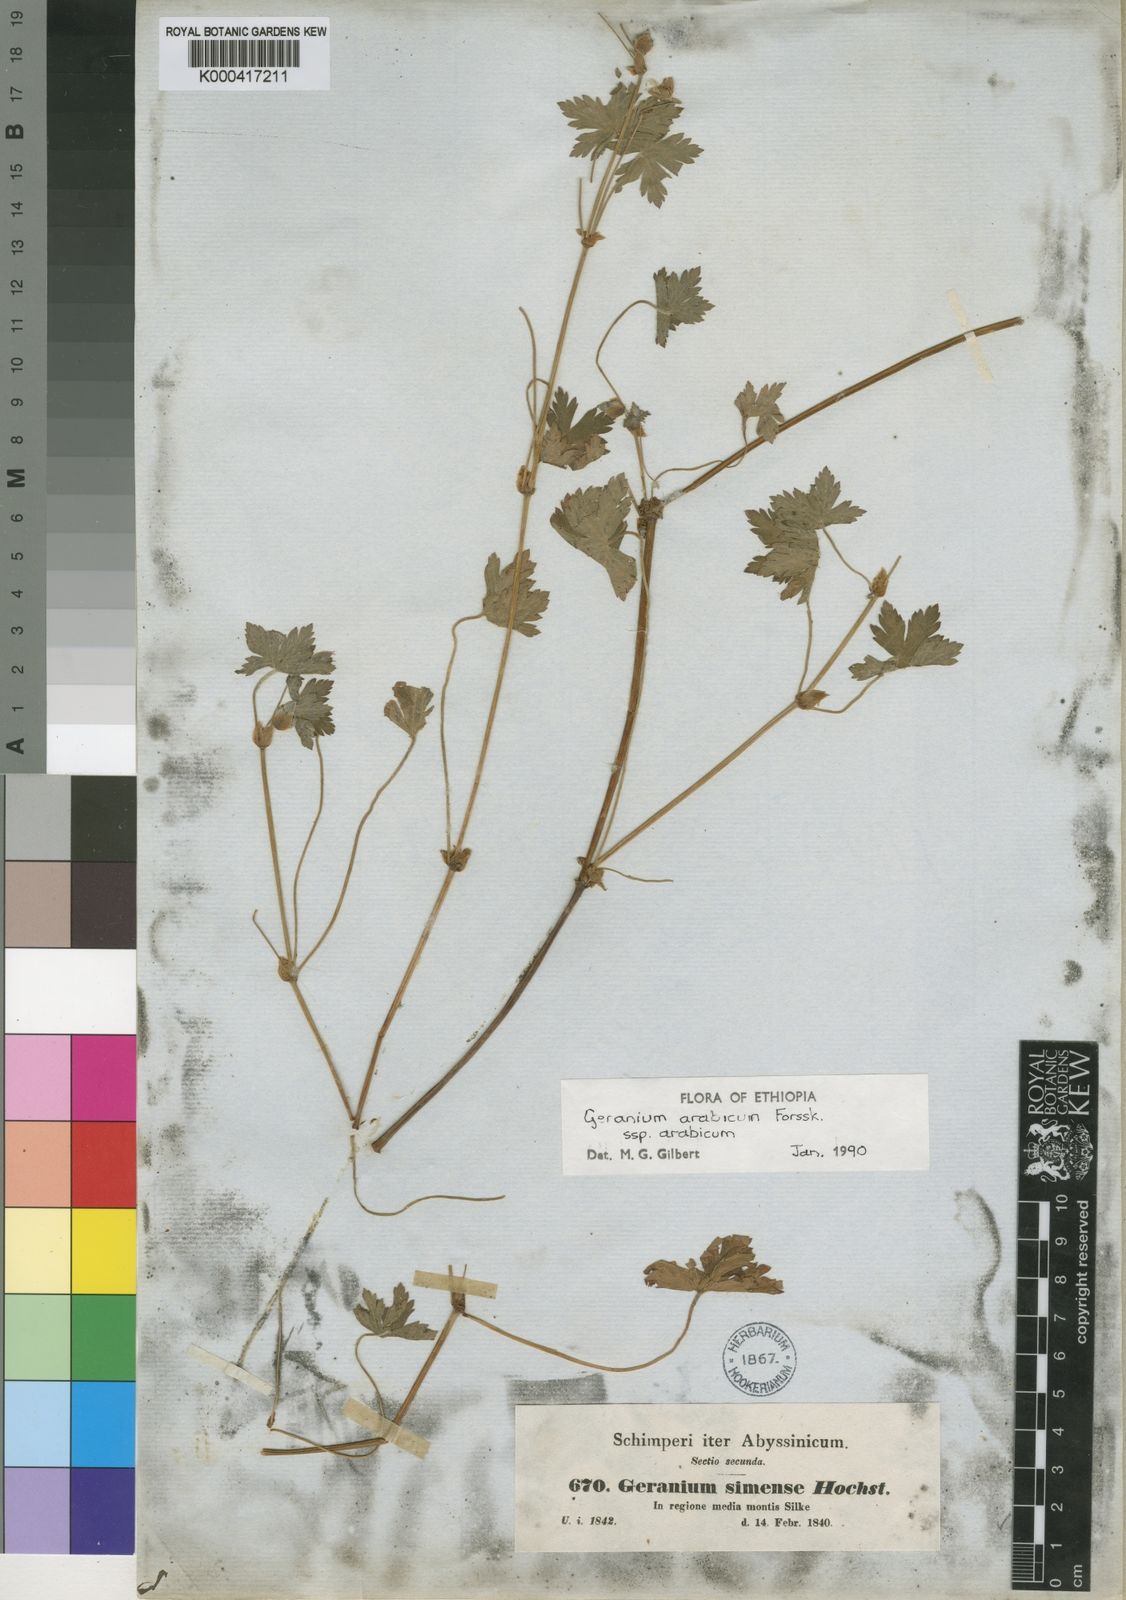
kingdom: Plantae
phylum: Tracheophyta
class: Magnoliopsida
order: Geraniales
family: Geraniaceae
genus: Geranium
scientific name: Geranium arabicum
